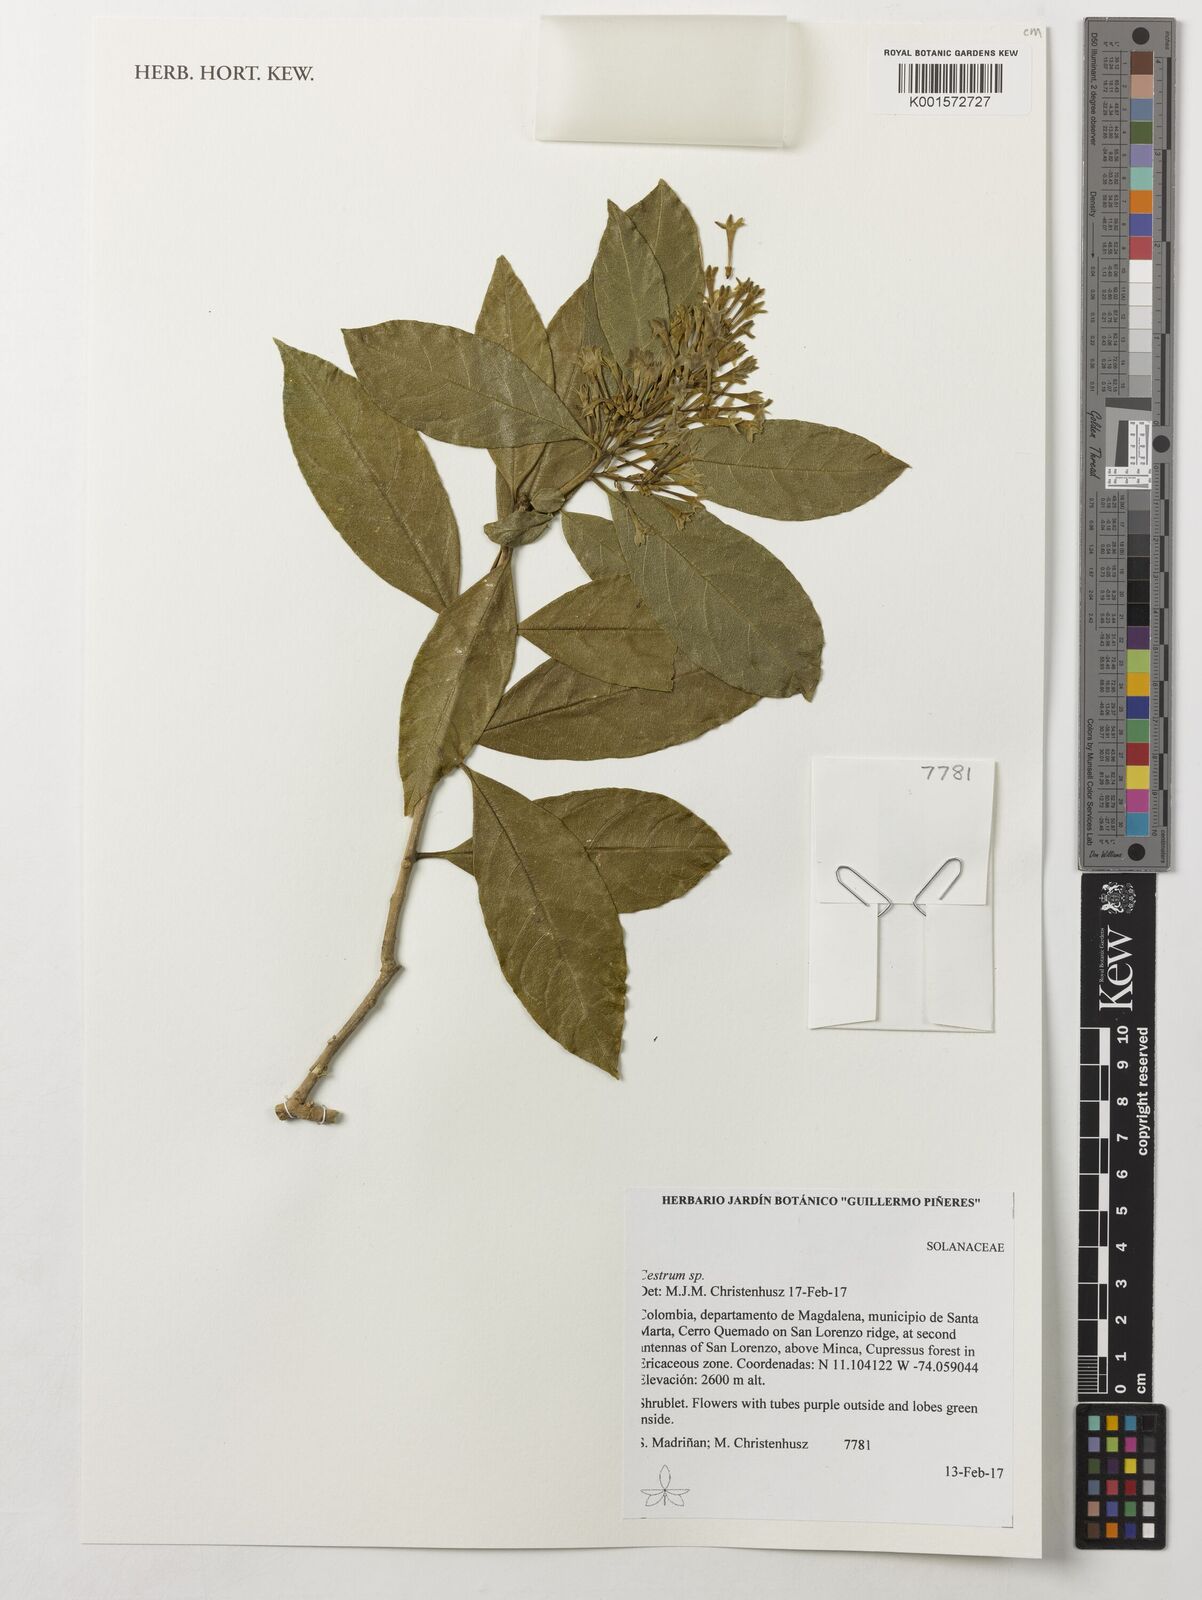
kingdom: Plantae
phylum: Tracheophyta
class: Magnoliopsida
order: Solanales
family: Solanaceae
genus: Cestrum
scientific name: Cestrum
